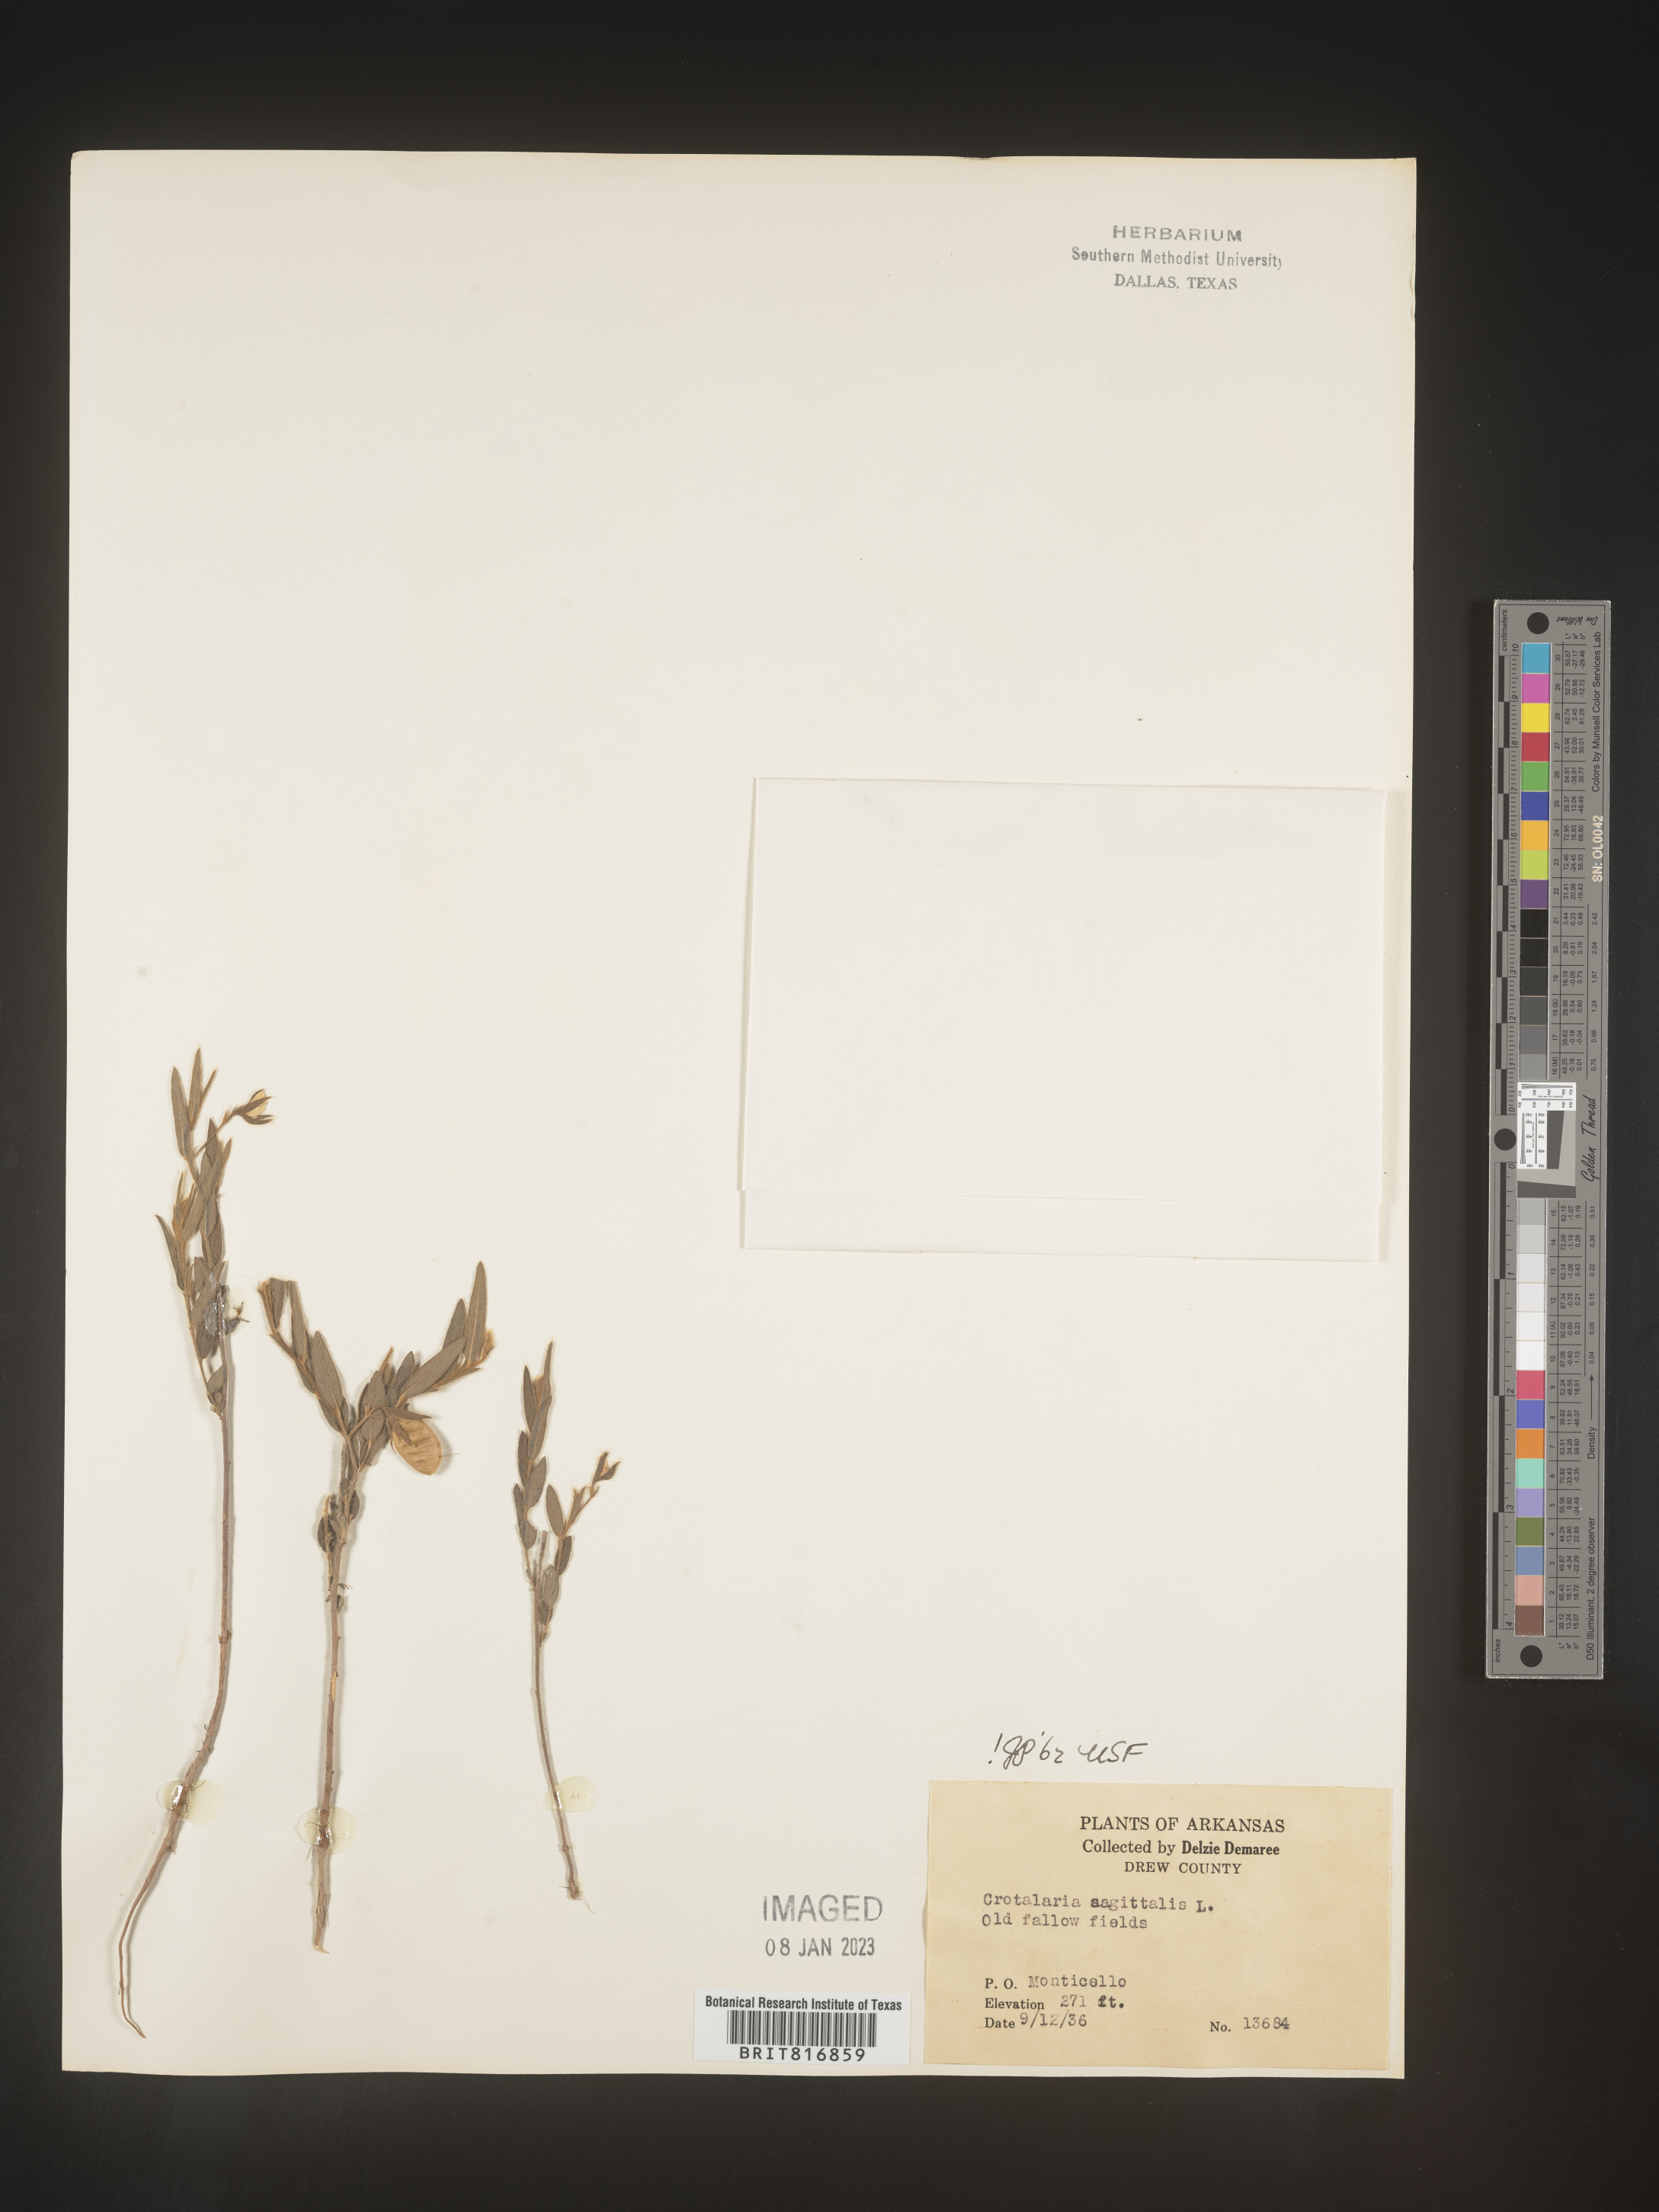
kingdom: Plantae
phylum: Tracheophyta
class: Magnoliopsida
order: Fabales
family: Fabaceae
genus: Crotalaria
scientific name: Crotalaria sagittalis
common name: Arrowhead rattlebox
